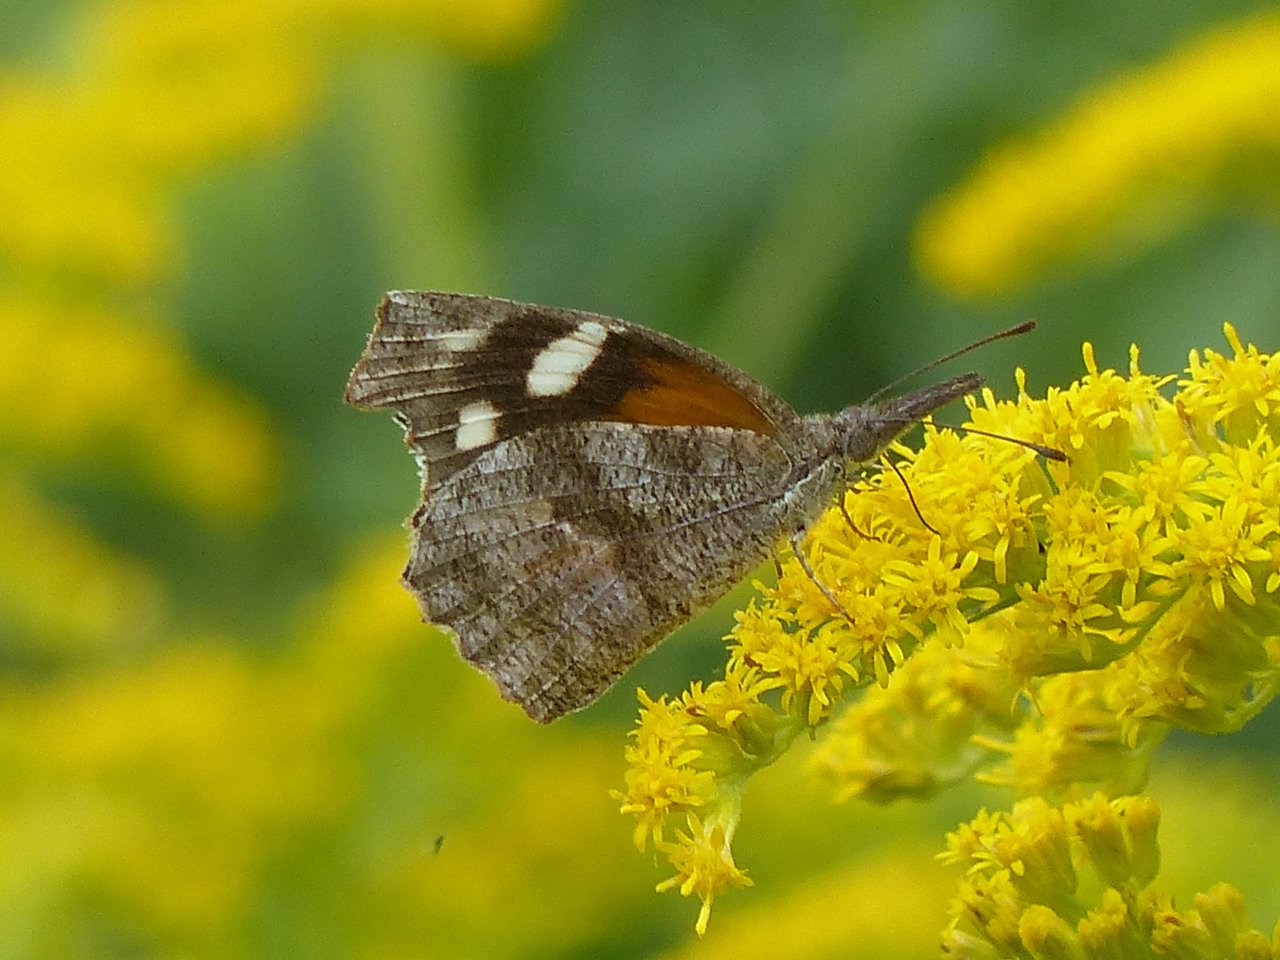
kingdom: Animalia
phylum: Arthropoda
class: Insecta
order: Lepidoptera
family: Nymphalidae
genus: Libytheana
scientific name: Libytheana carinenta
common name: American Snout
